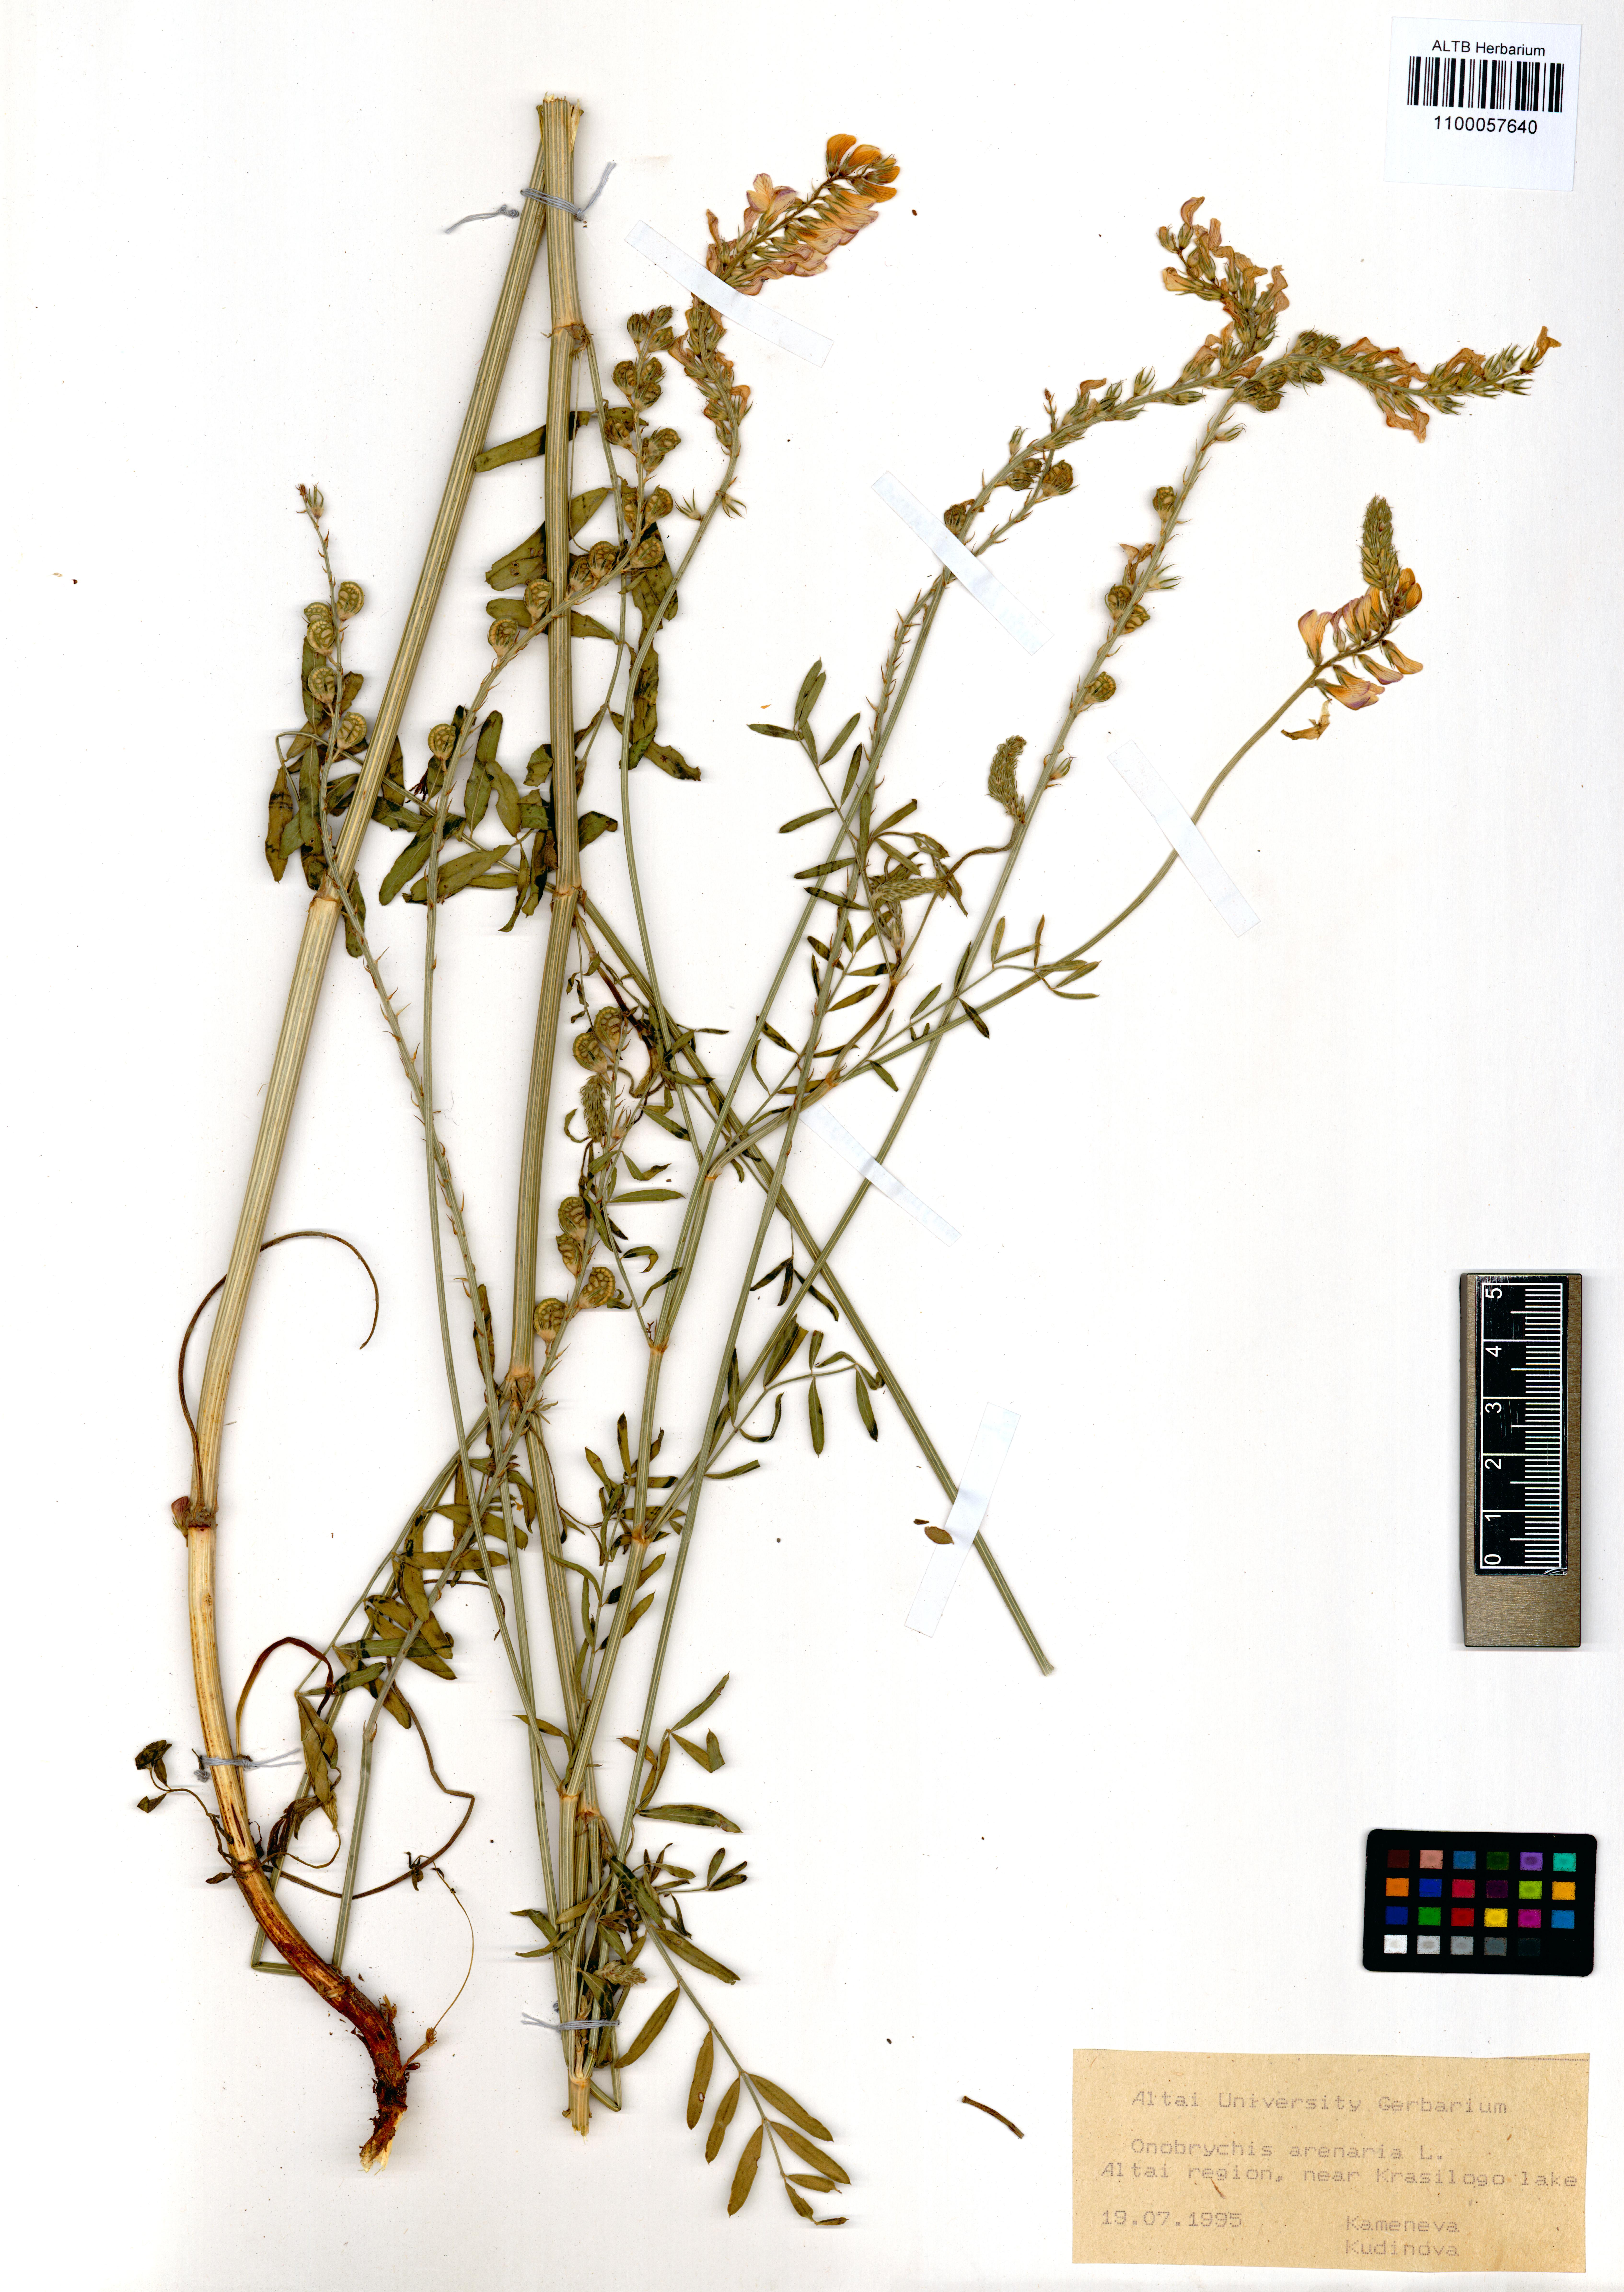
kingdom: Plantae
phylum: Tracheophyta
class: Magnoliopsida
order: Fabales
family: Fabaceae
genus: Onobrychis
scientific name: Onobrychis arenaria
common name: Sand esparcet
